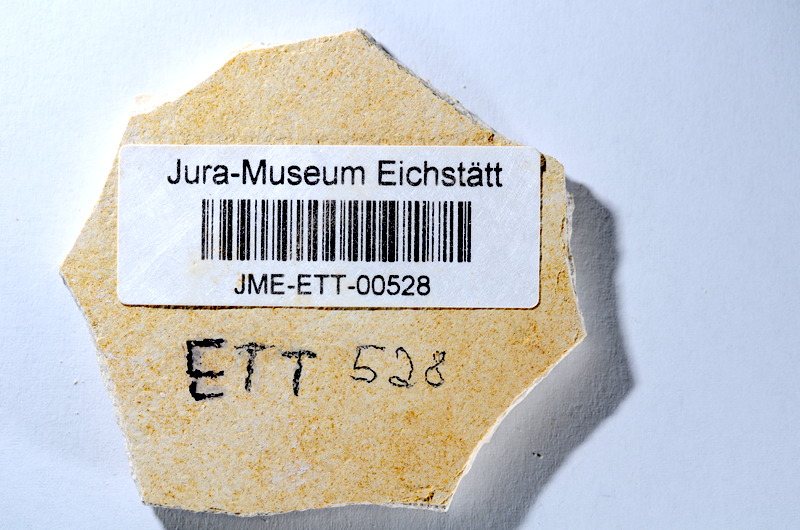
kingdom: Animalia
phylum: Chordata
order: Salmoniformes
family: Orthogonikleithridae
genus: Orthogonikleithrus
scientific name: Orthogonikleithrus hoelli
